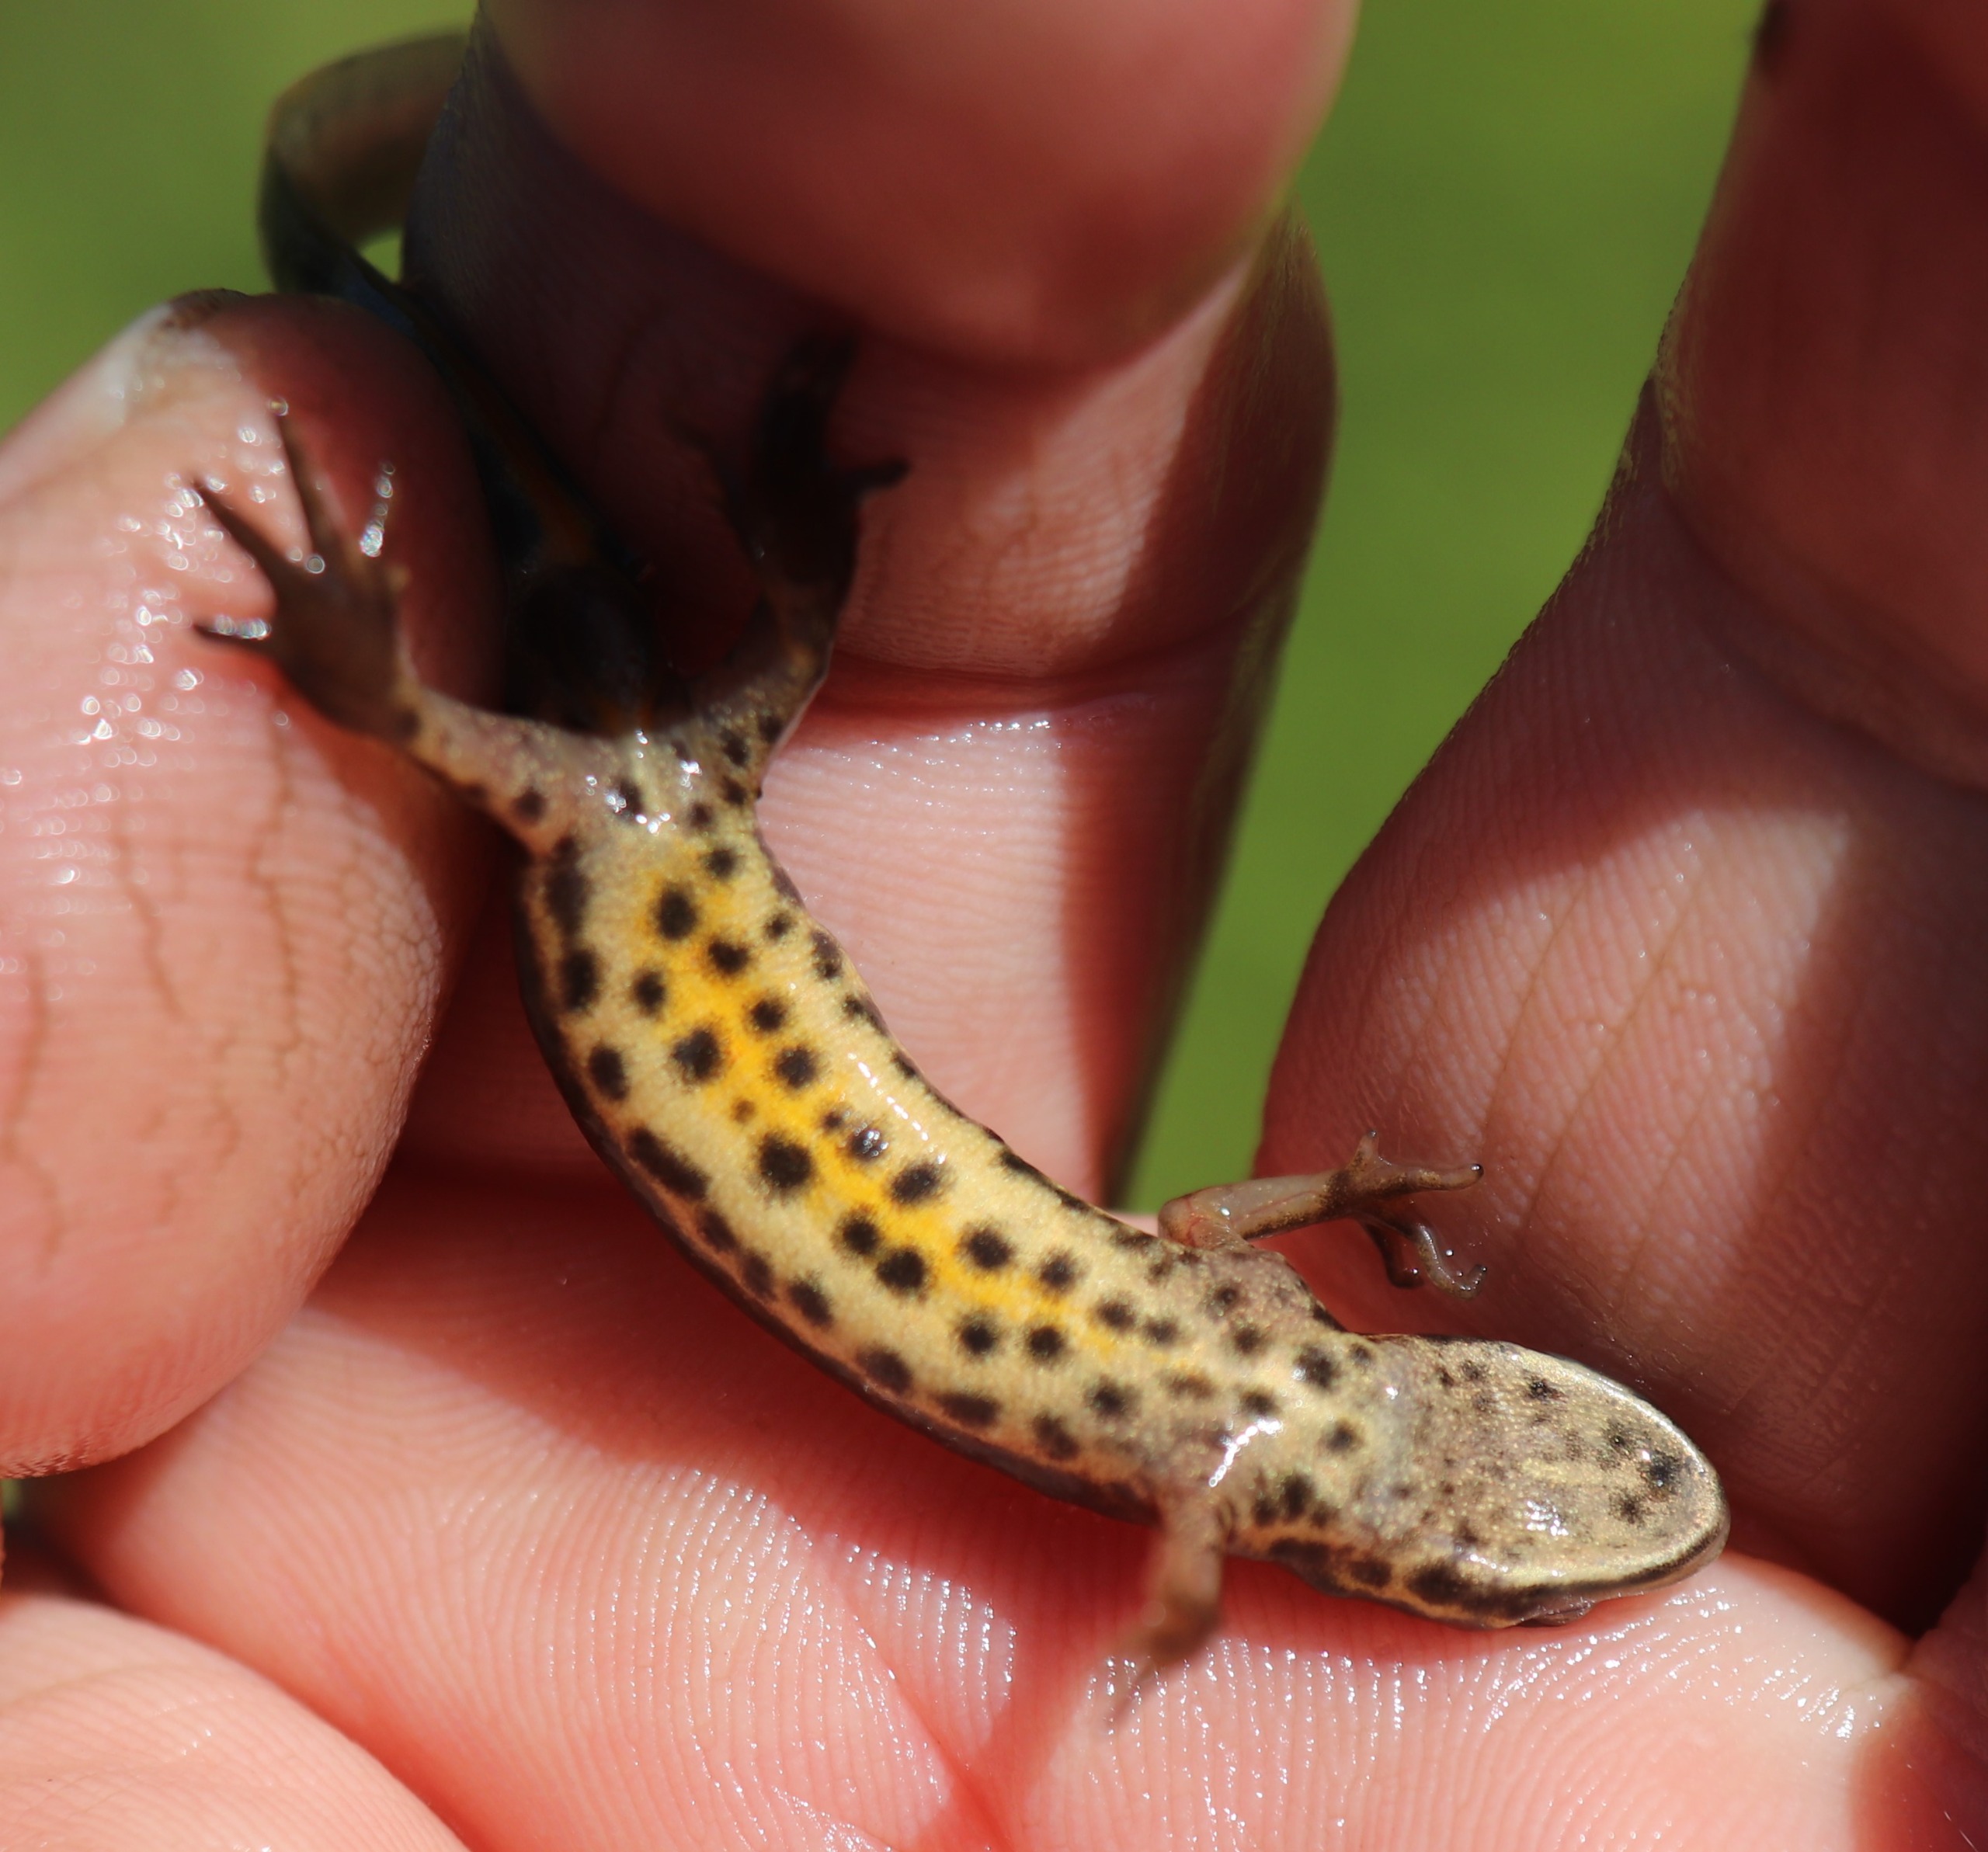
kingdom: Animalia
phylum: Chordata
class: Amphibia
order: Caudata
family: Salamandridae
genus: Lissotriton
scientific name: Lissotriton vulgaris
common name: Lille vandsalamander
